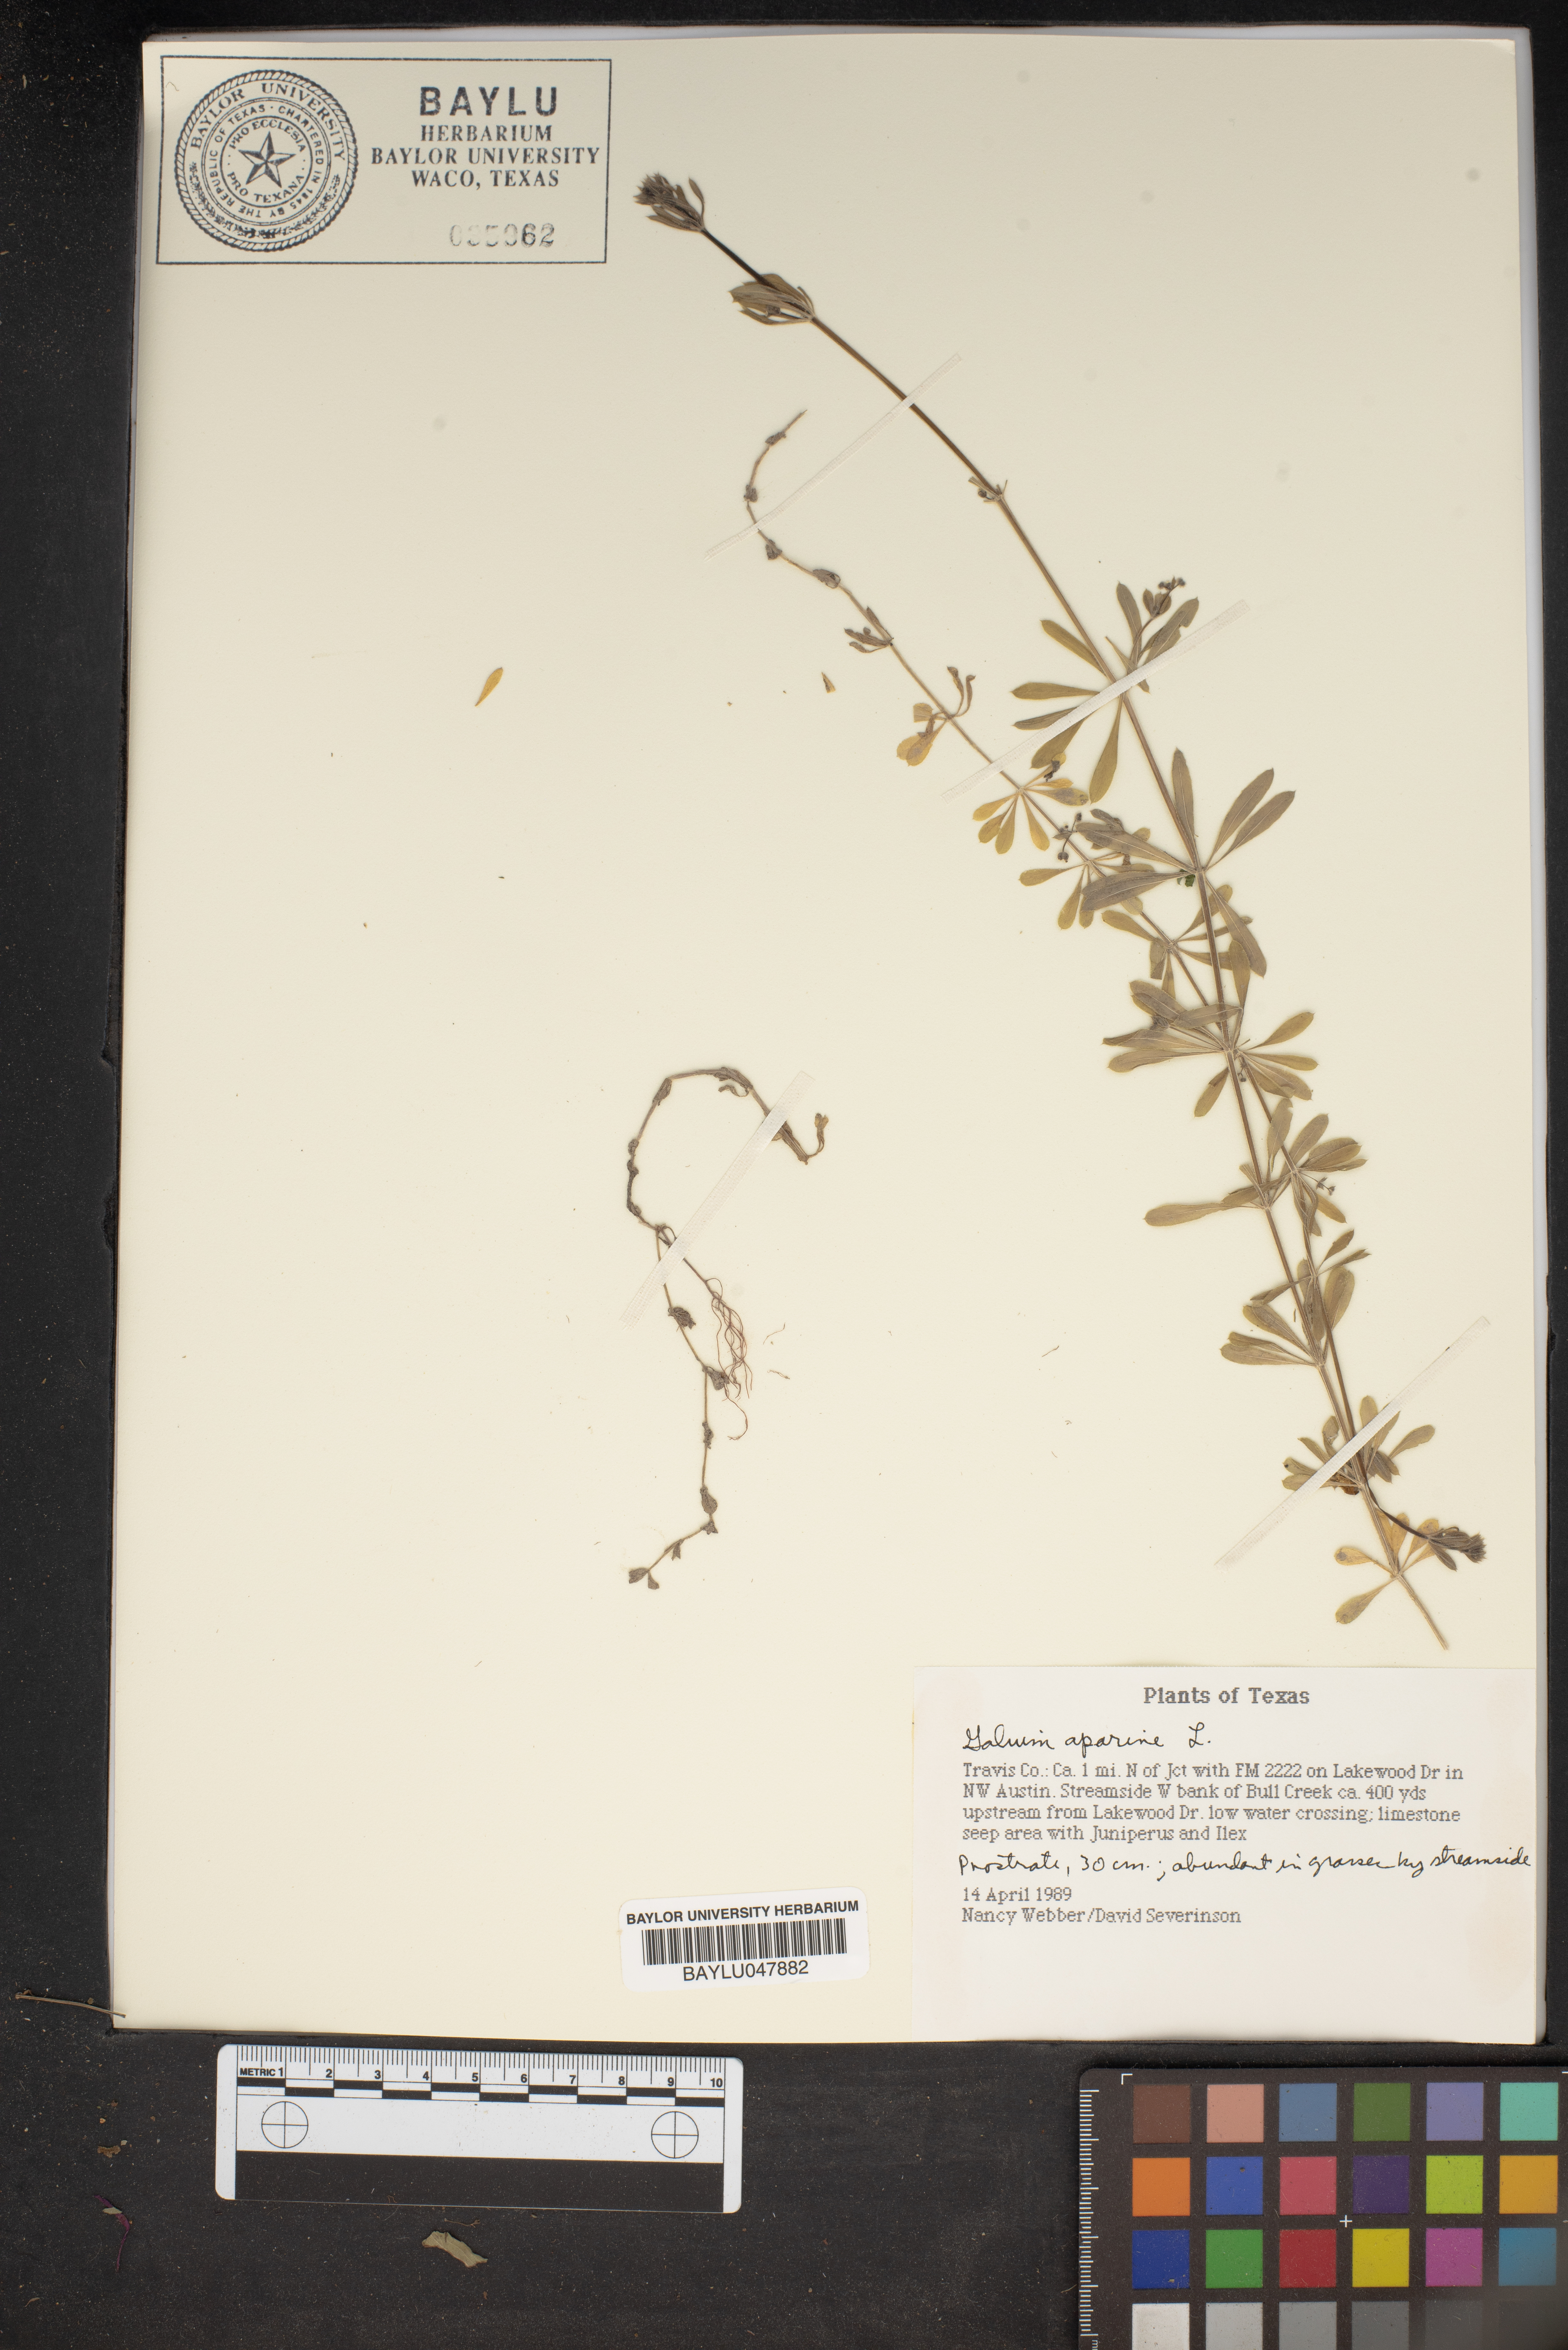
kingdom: Plantae
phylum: Tracheophyta
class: Magnoliopsida
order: Gentianales
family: Rubiaceae
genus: Galium
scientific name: Galium aparine
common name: Cleavers
